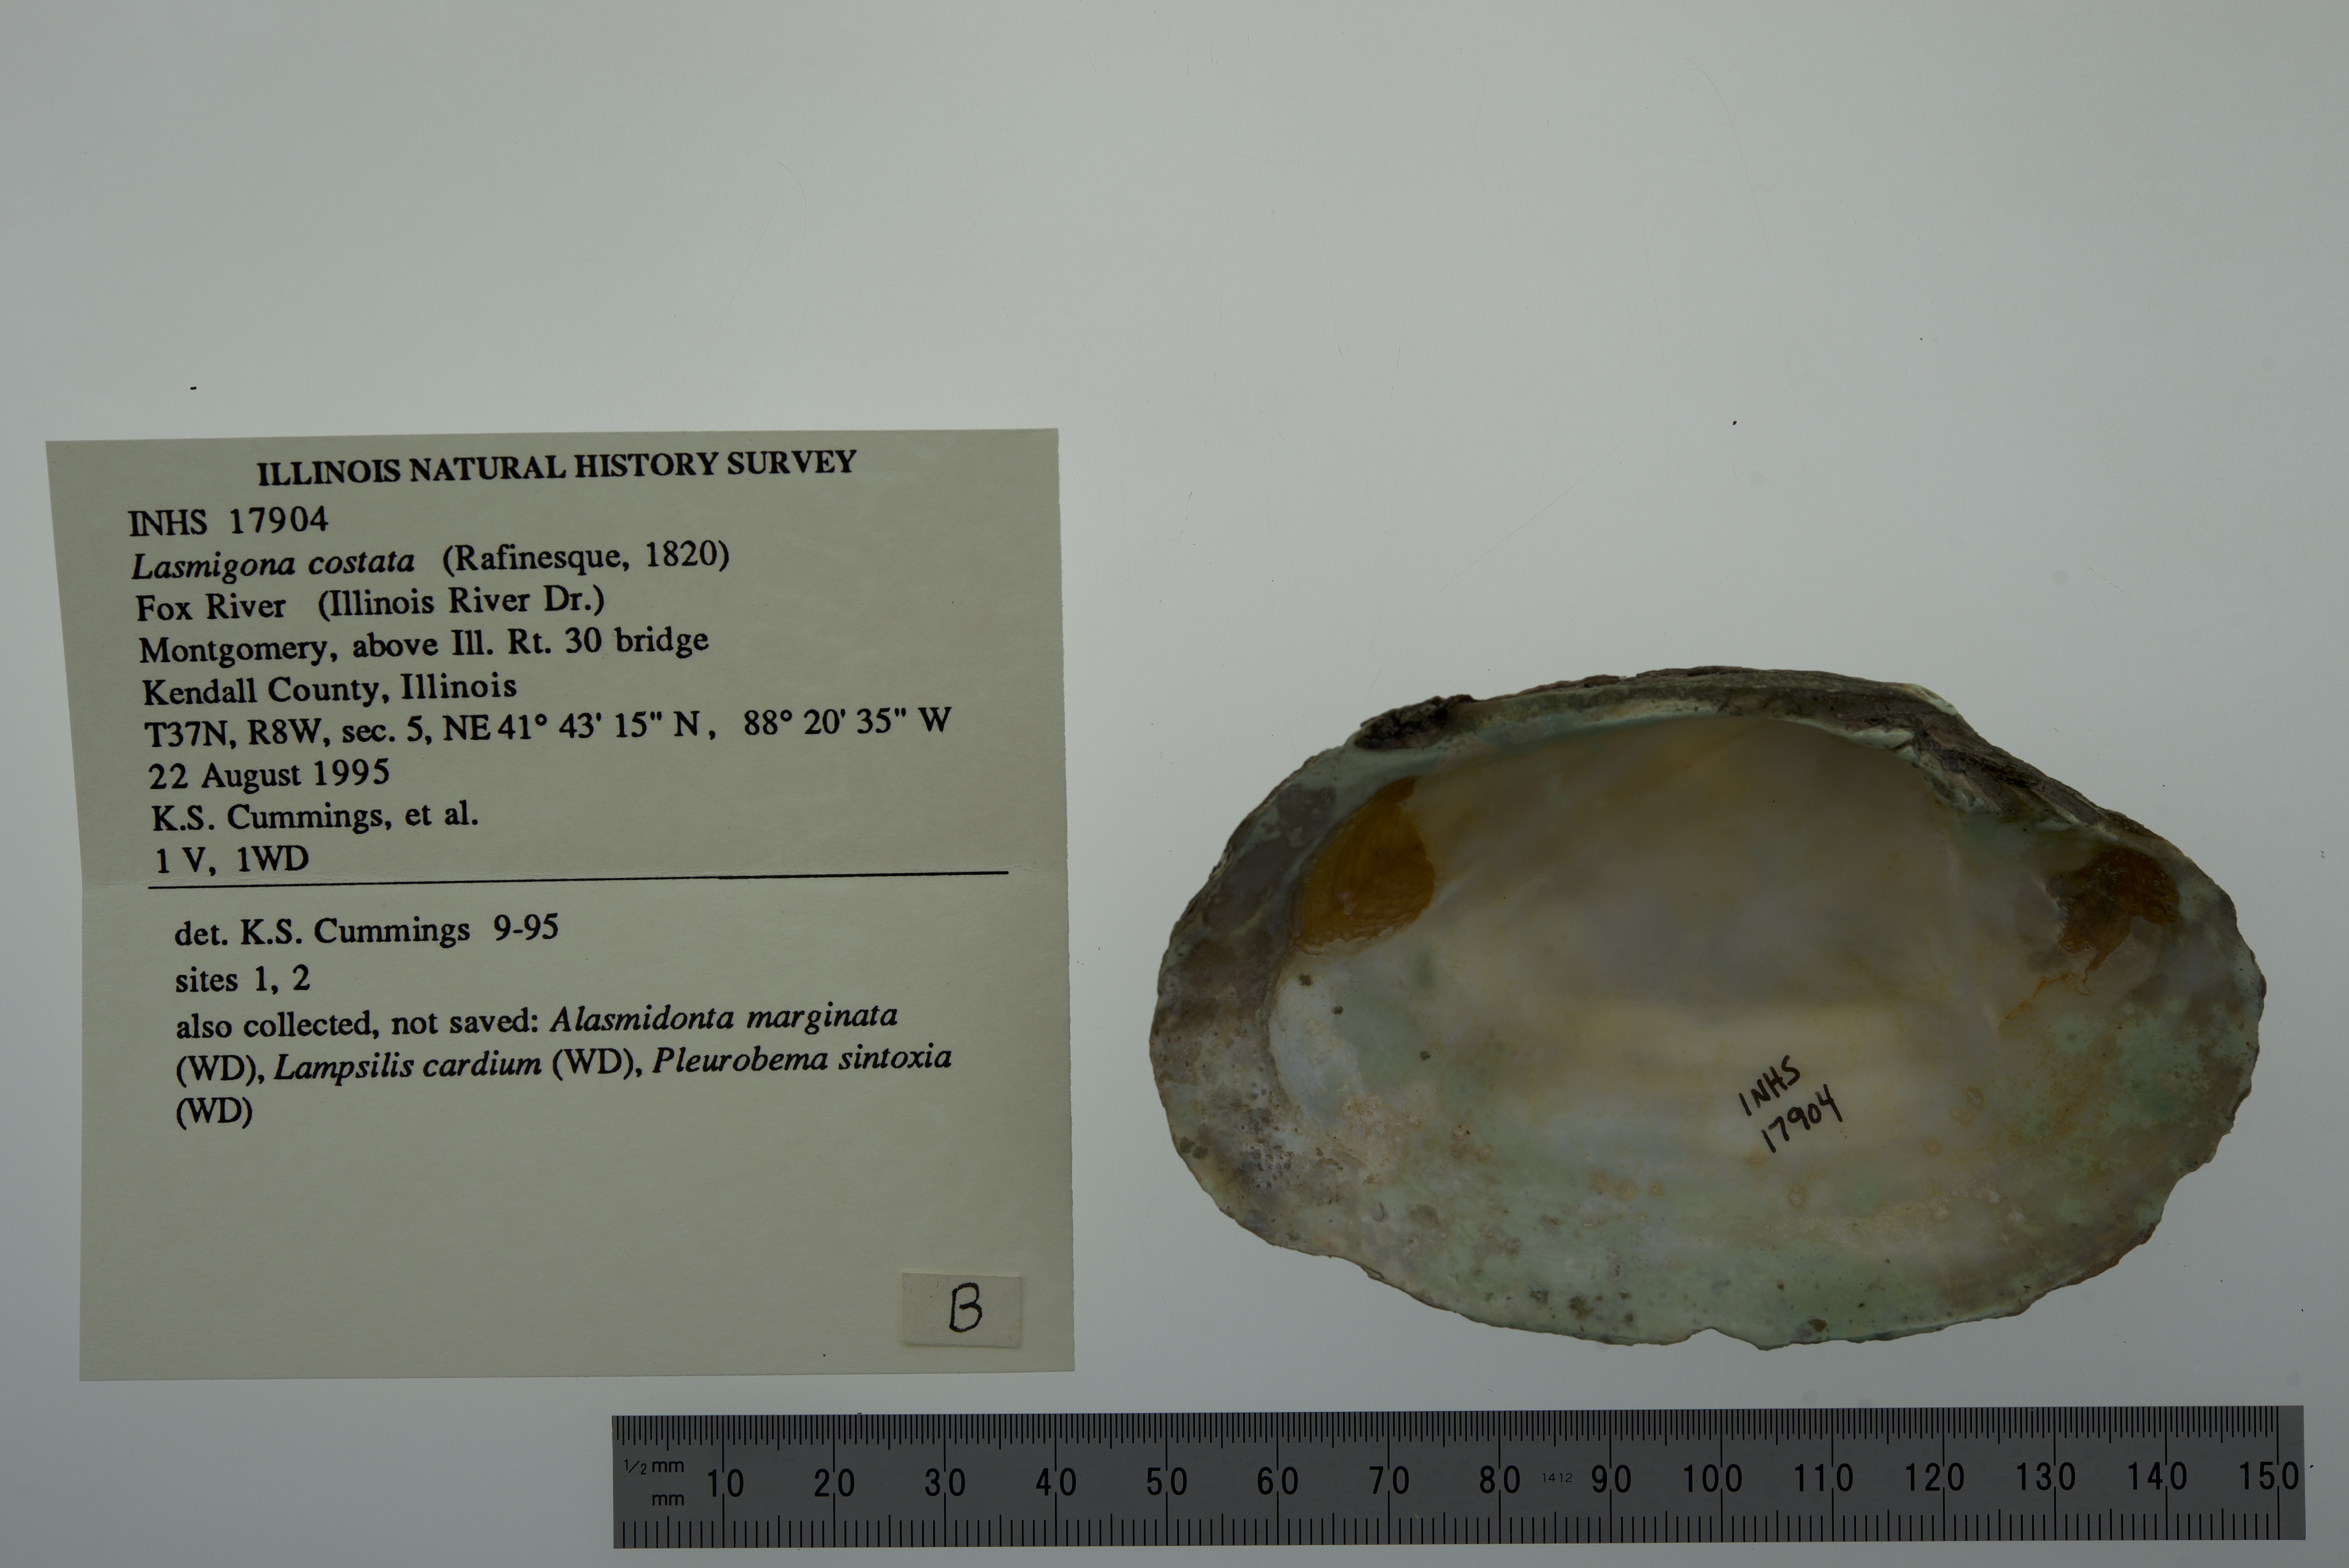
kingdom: Animalia
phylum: Mollusca
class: Bivalvia
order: Unionida
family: Unionidae
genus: Lasmigona
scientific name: Lasmigona costata
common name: Flutedshell
